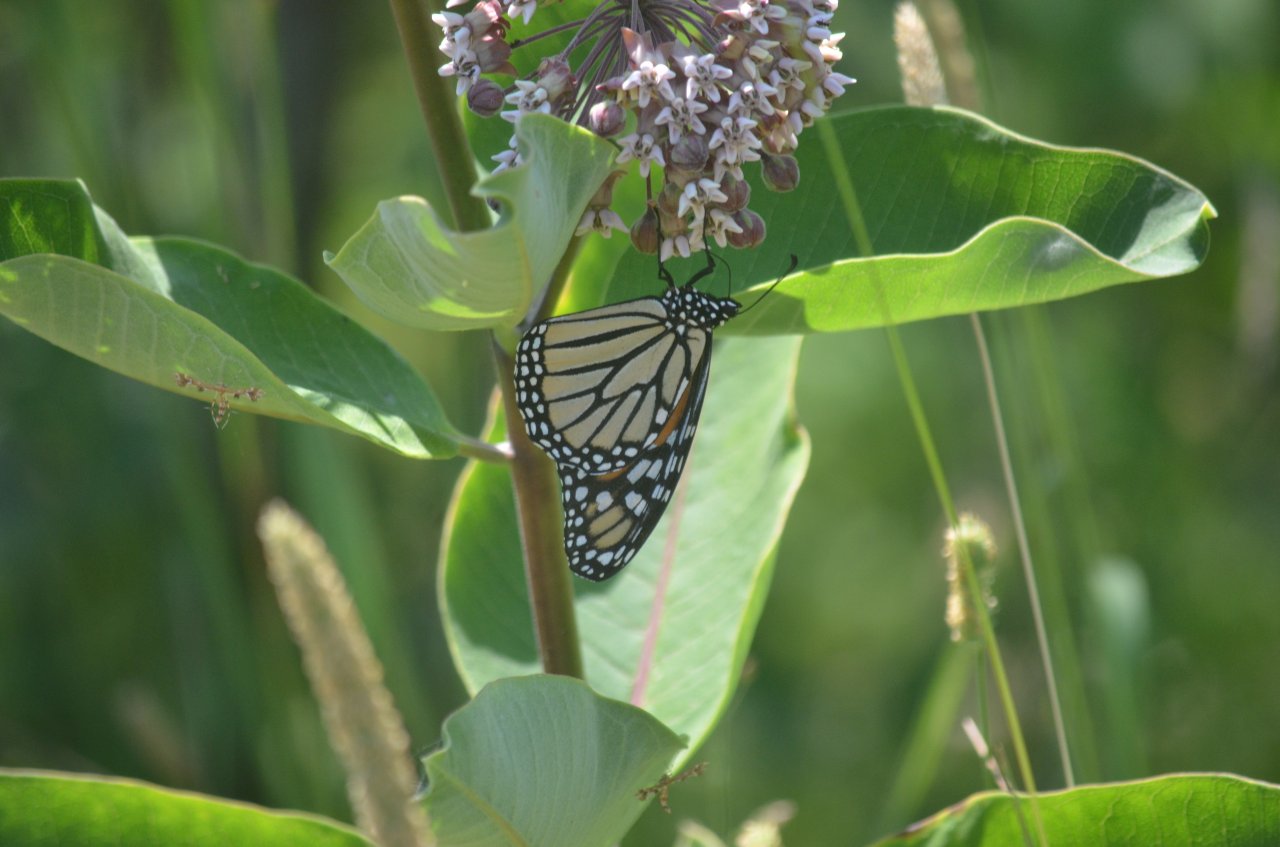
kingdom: Animalia
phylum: Arthropoda
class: Insecta
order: Lepidoptera
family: Nymphalidae
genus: Danaus
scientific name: Danaus plexippus
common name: Monarch
